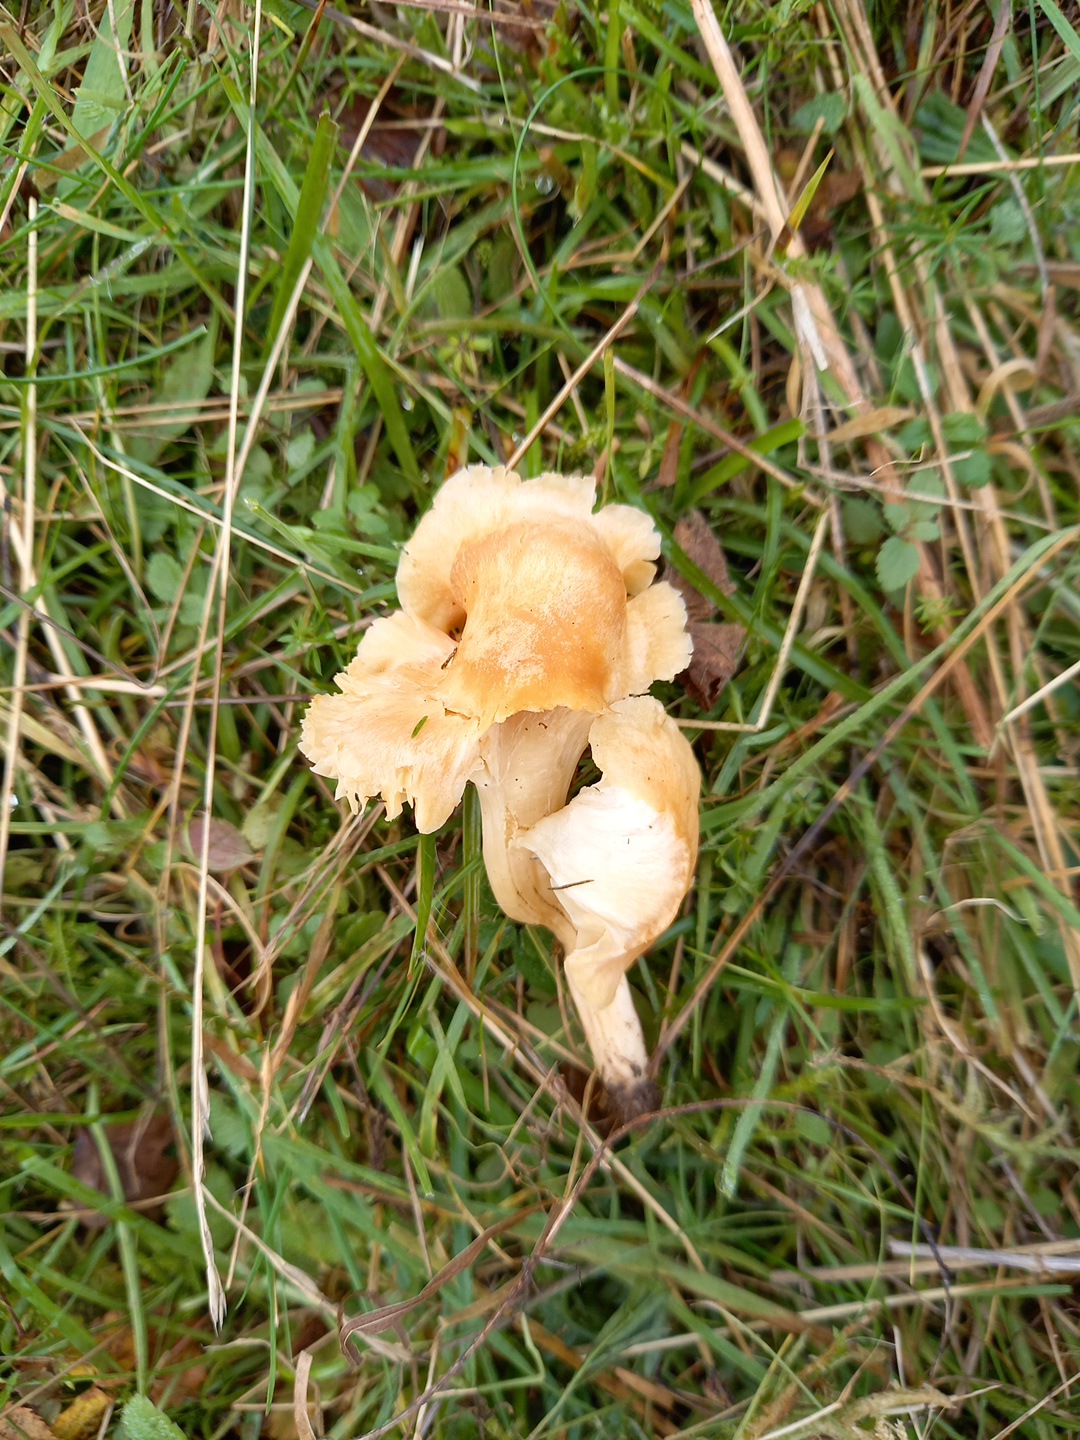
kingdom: Fungi
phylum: Basidiomycota
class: Agaricomycetes
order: Agaricales
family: Hygrophoraceae
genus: Cuphophyllus
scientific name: Cuphophyllus pratensis
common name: eng-vokshat
